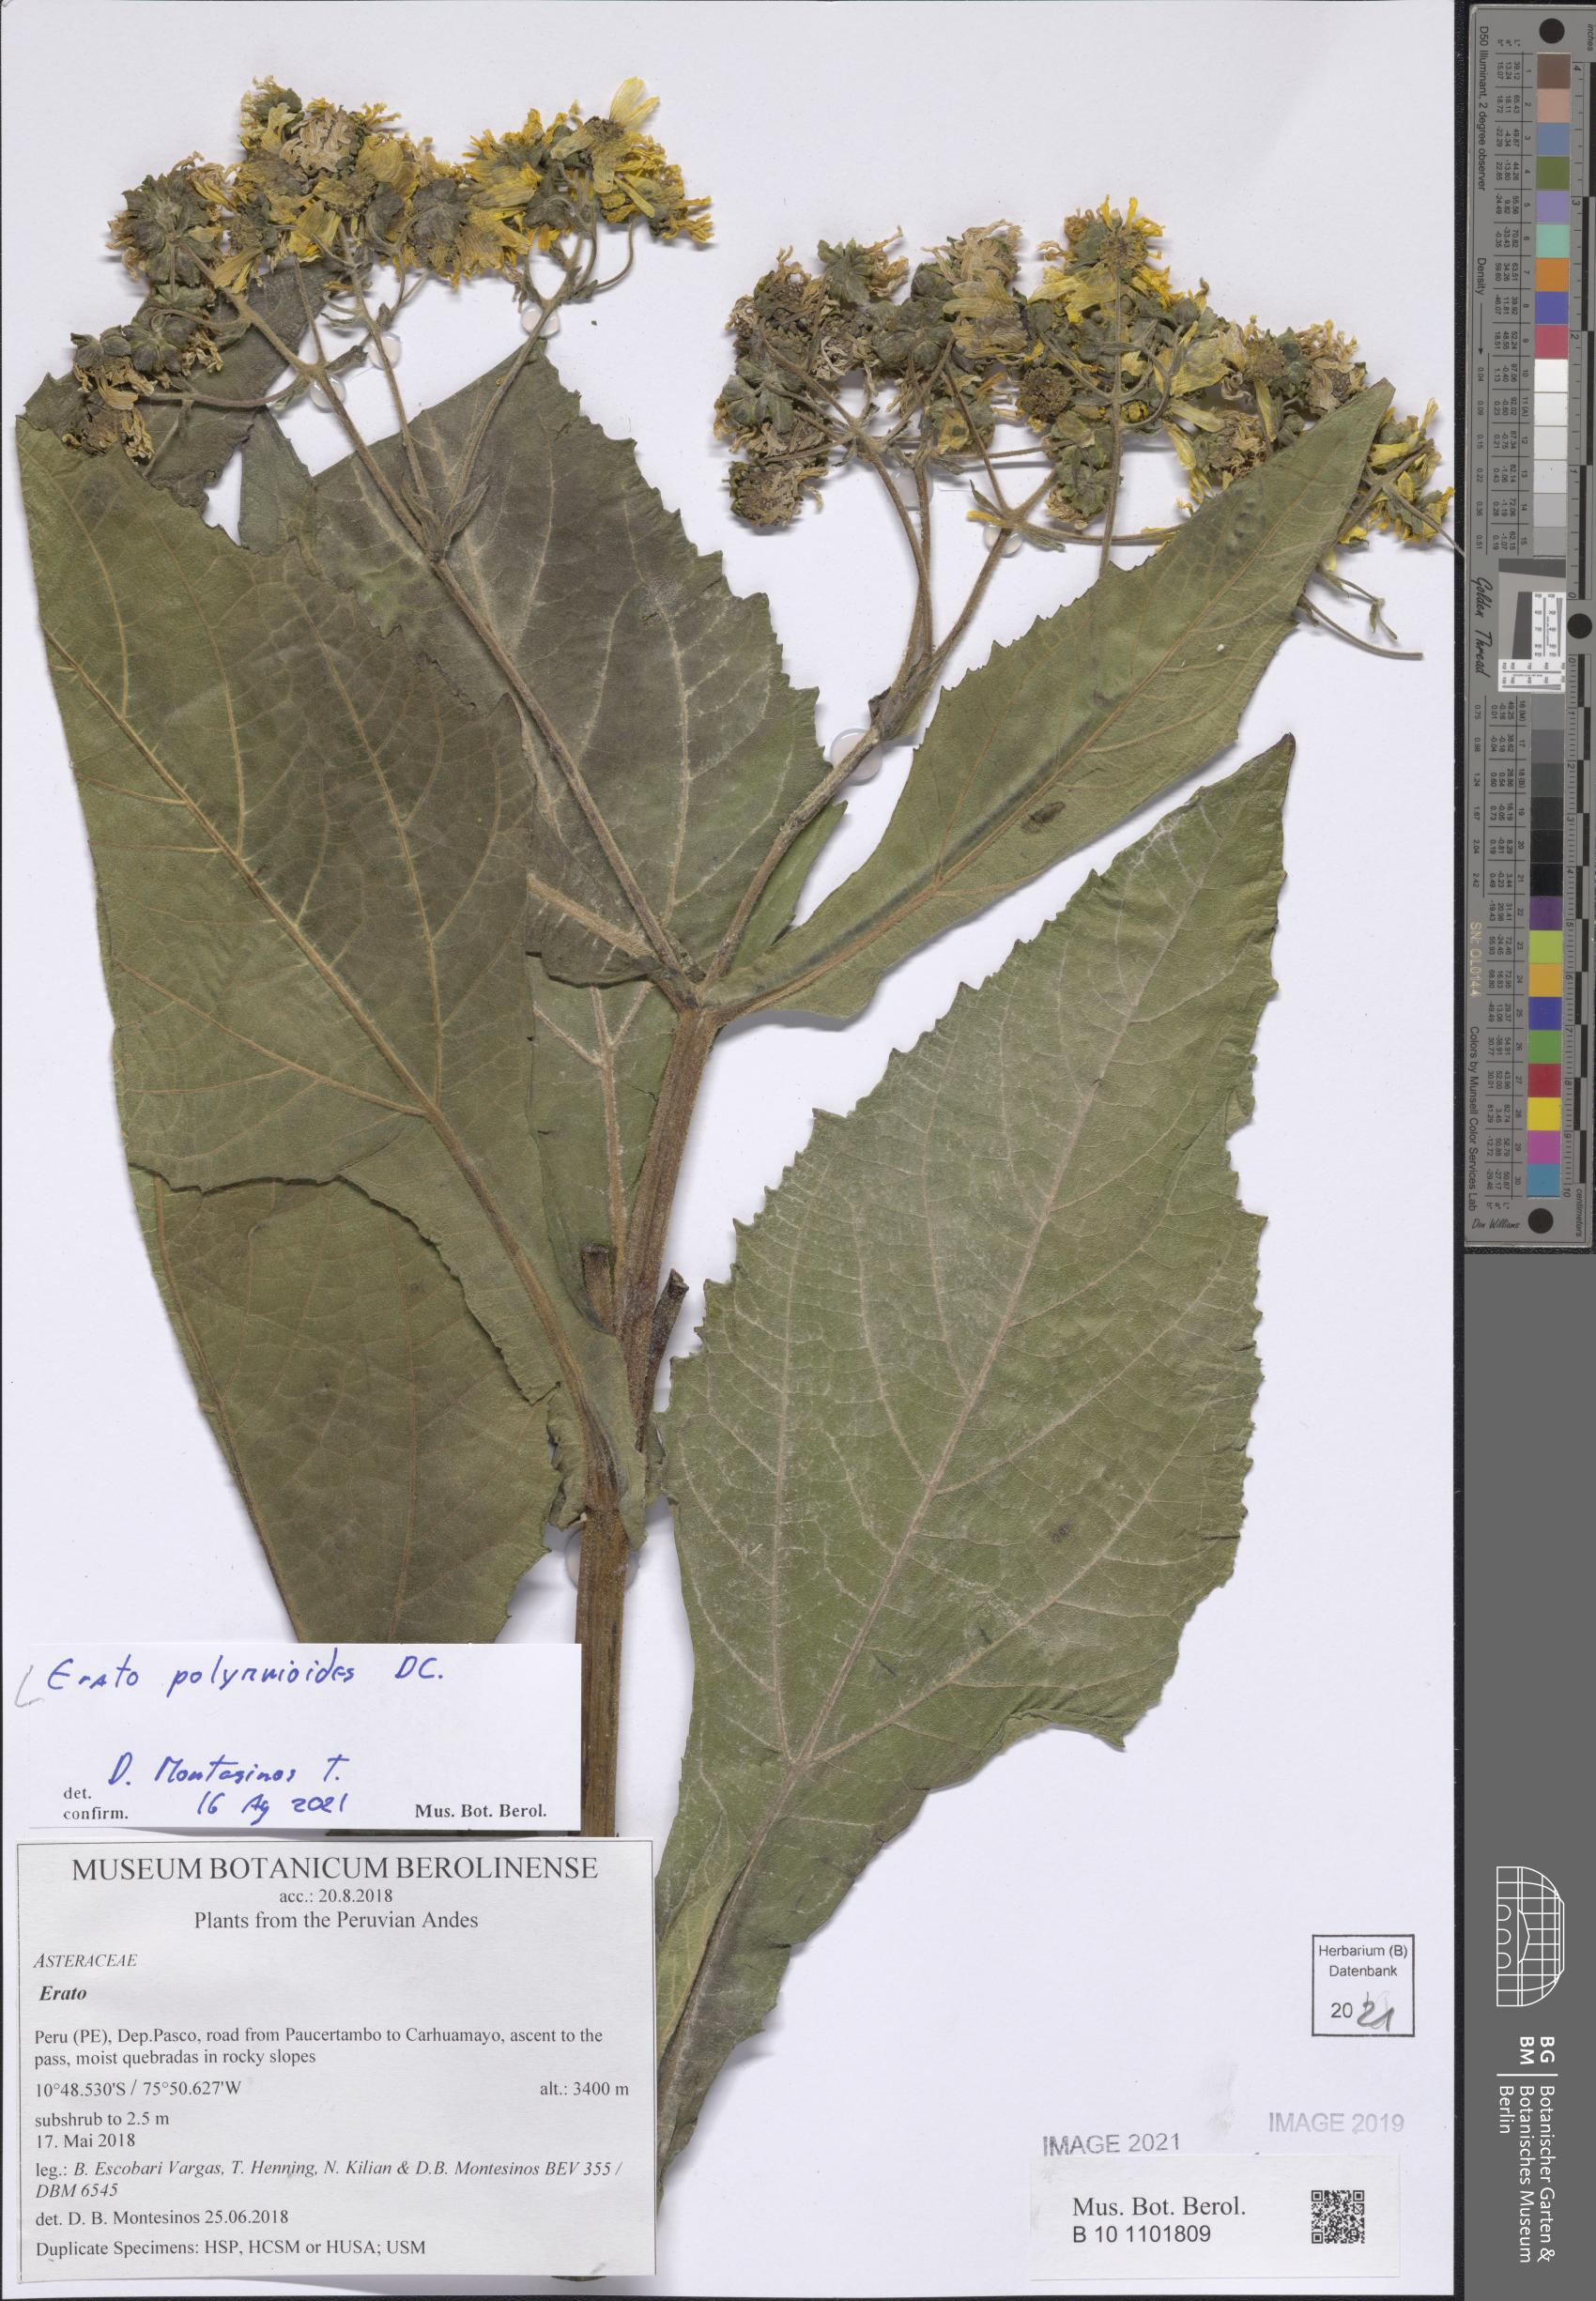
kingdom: Plantae
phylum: Tracheophyta
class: Magnoliopsida
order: Asterales
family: Asteraceae
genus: Erato
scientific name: Erato polymnioides
